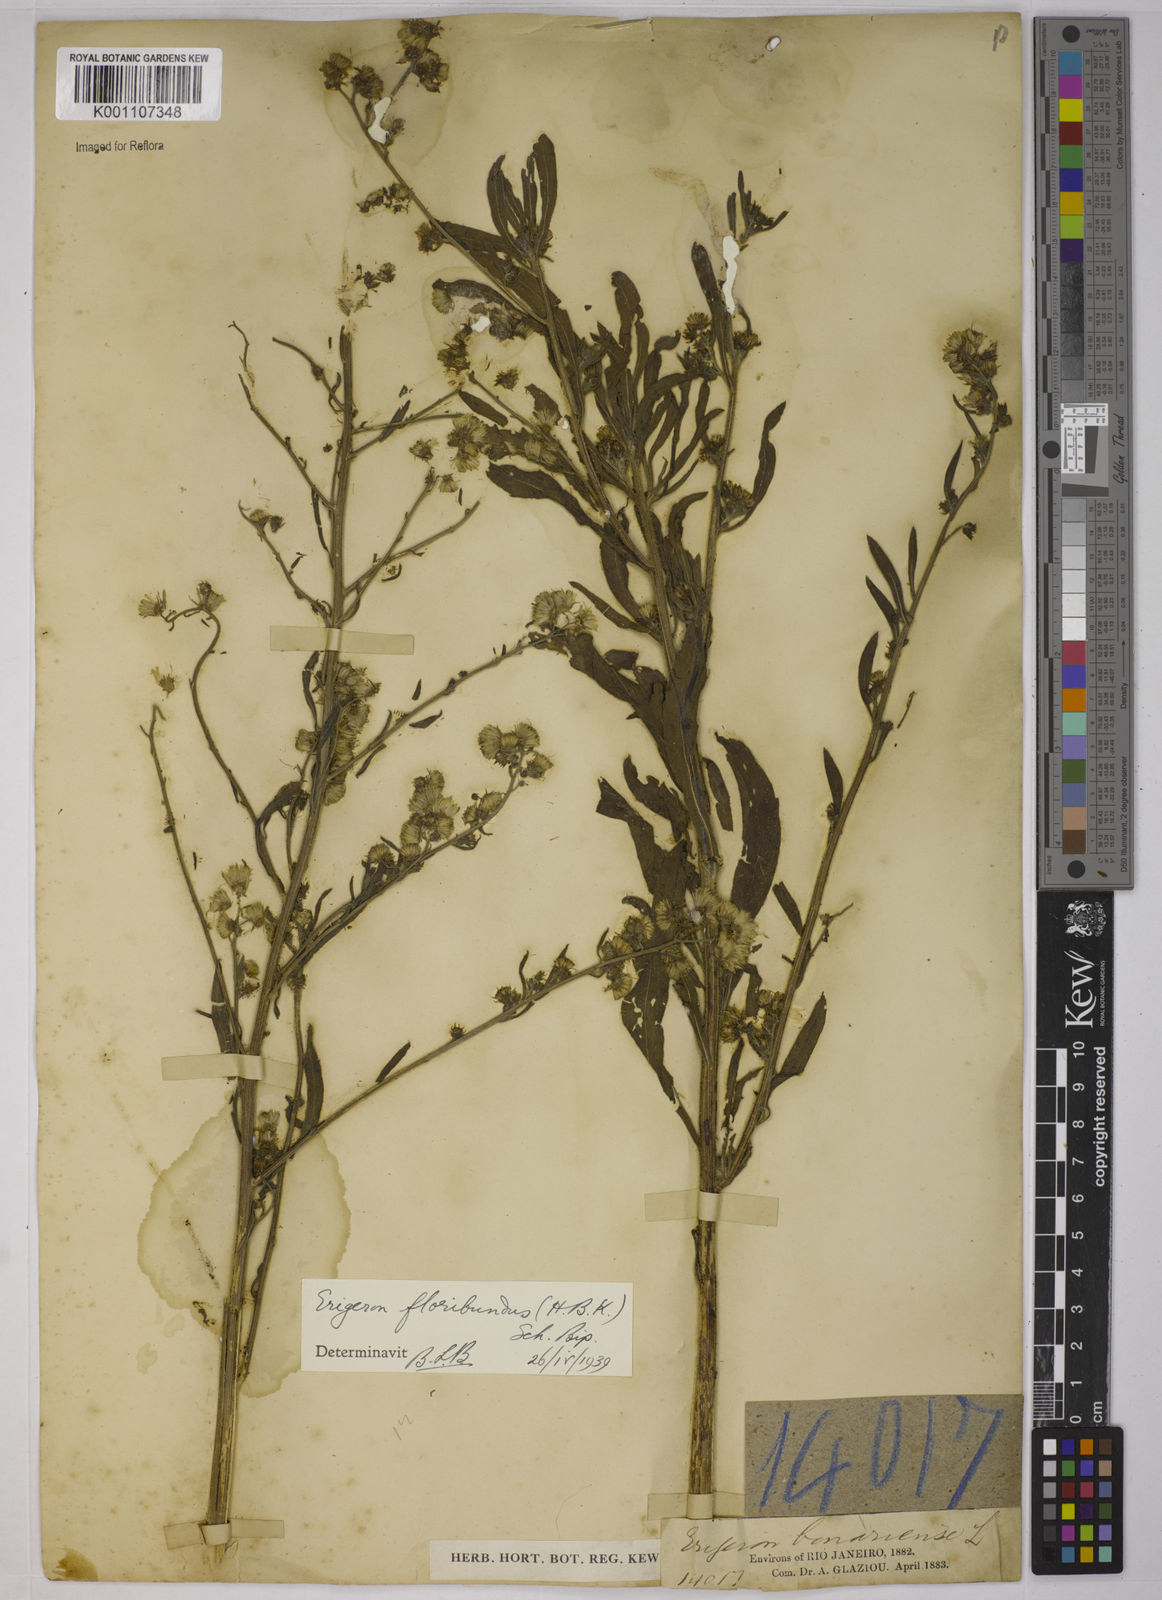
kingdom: Plantae
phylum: Tracheophyta
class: Magnoliopsida
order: Asterales
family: Asteraceae
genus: Erigeron
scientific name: Erigeron floribundus
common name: Bilbao fleabane
